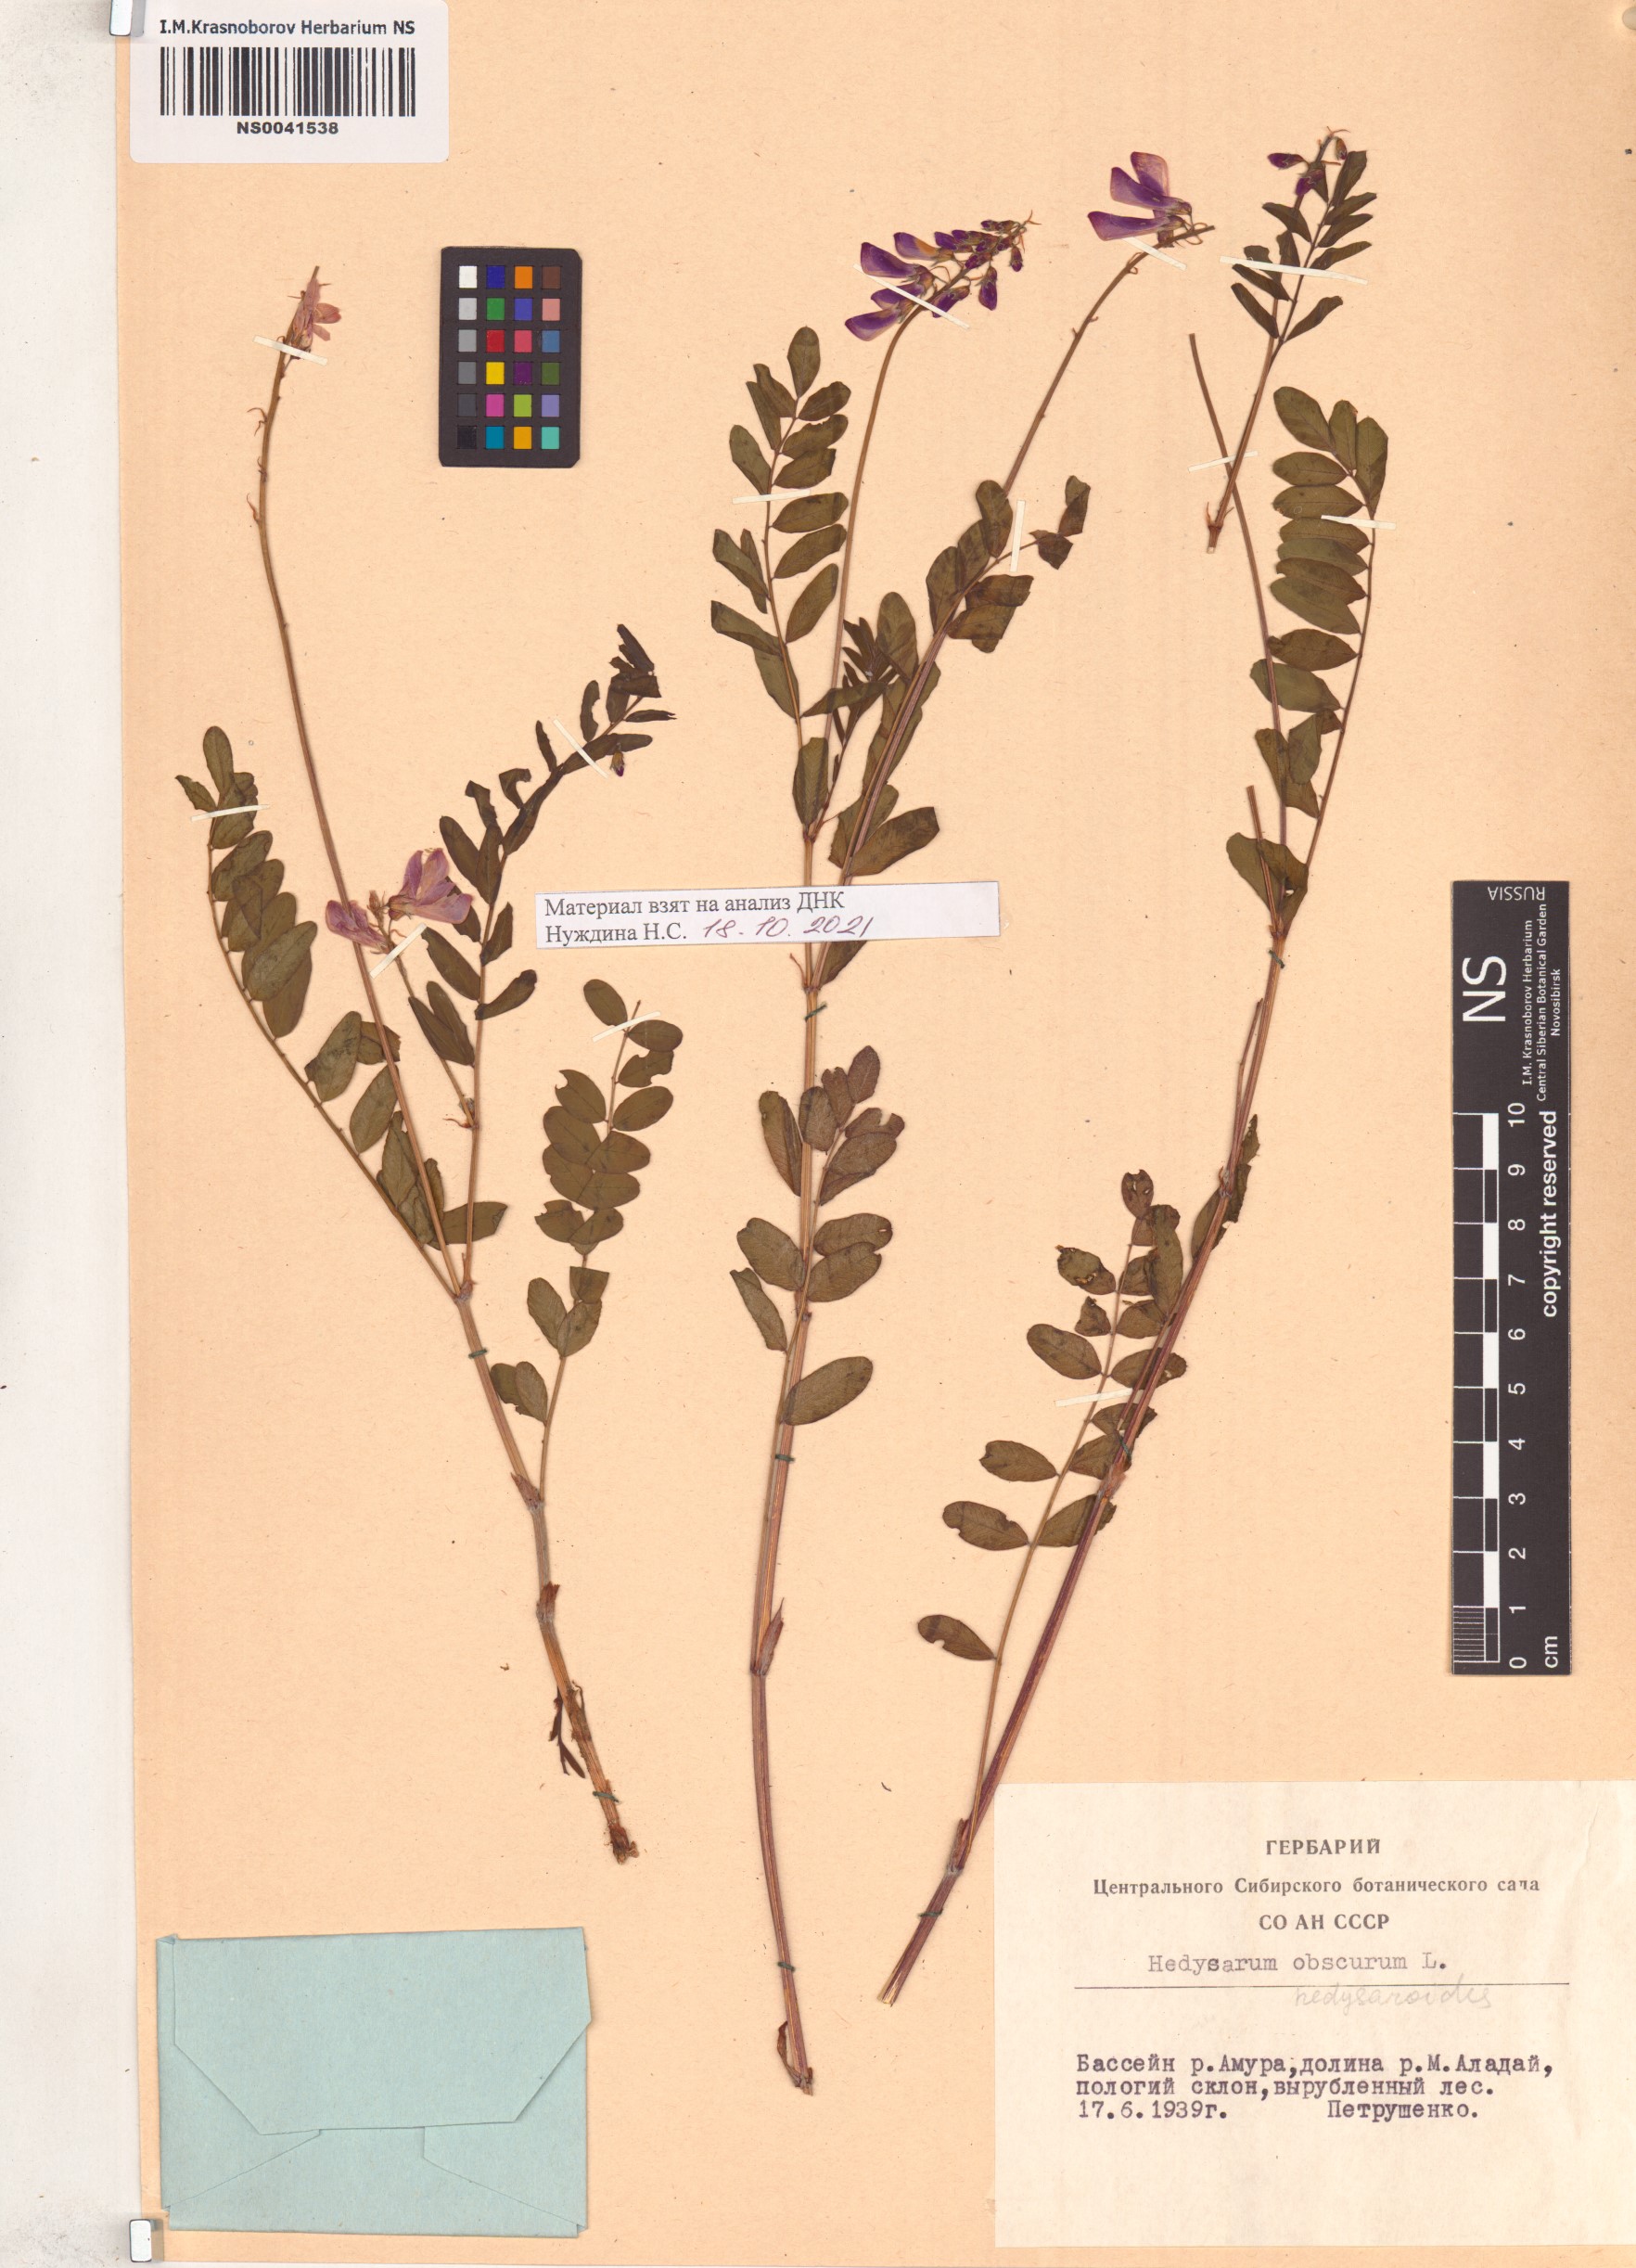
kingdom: Plantae
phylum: Tracheophyta
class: Magnoliopsida
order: Fabales
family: Fabaceae
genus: Hedysarum
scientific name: Hedysarum hedysaroides
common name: Alpine french-honeysuckle
